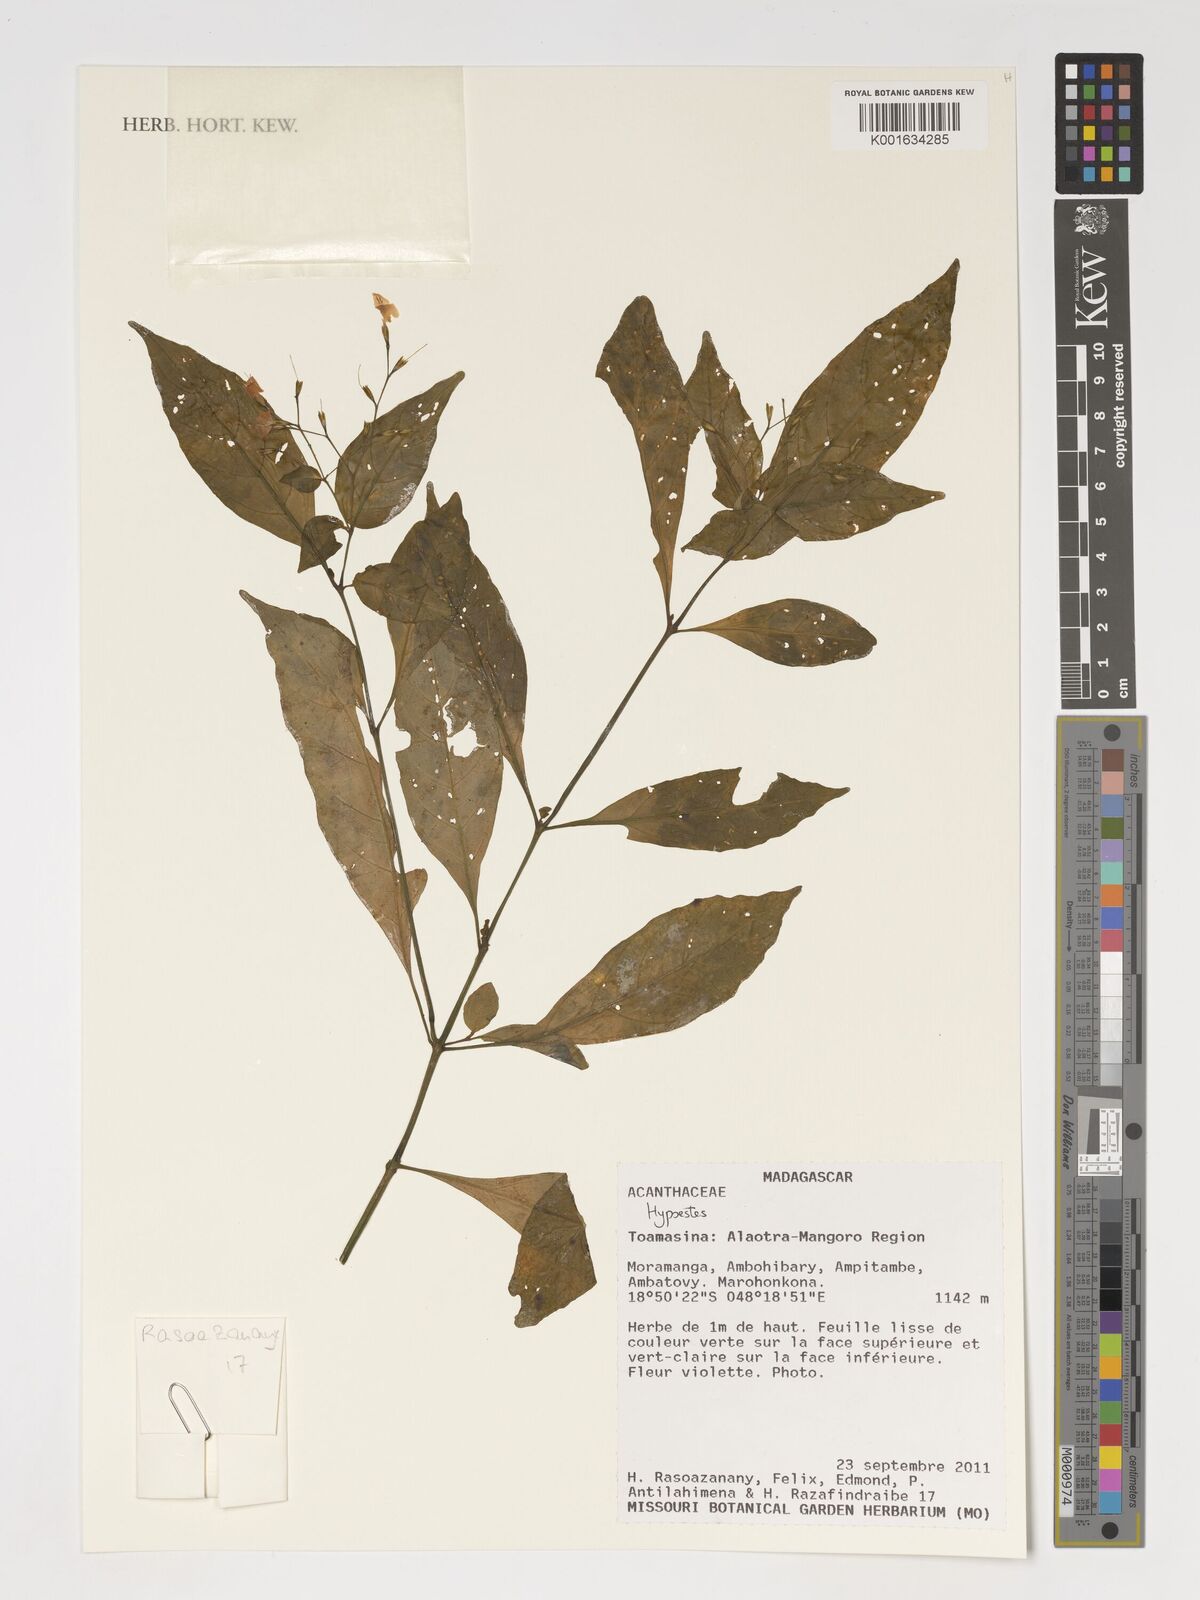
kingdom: Plantae
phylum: Tracheophyta
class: Magnoliopsida
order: Lamiales
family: Acanthaceae
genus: Hypoestes
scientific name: Hypoestes
